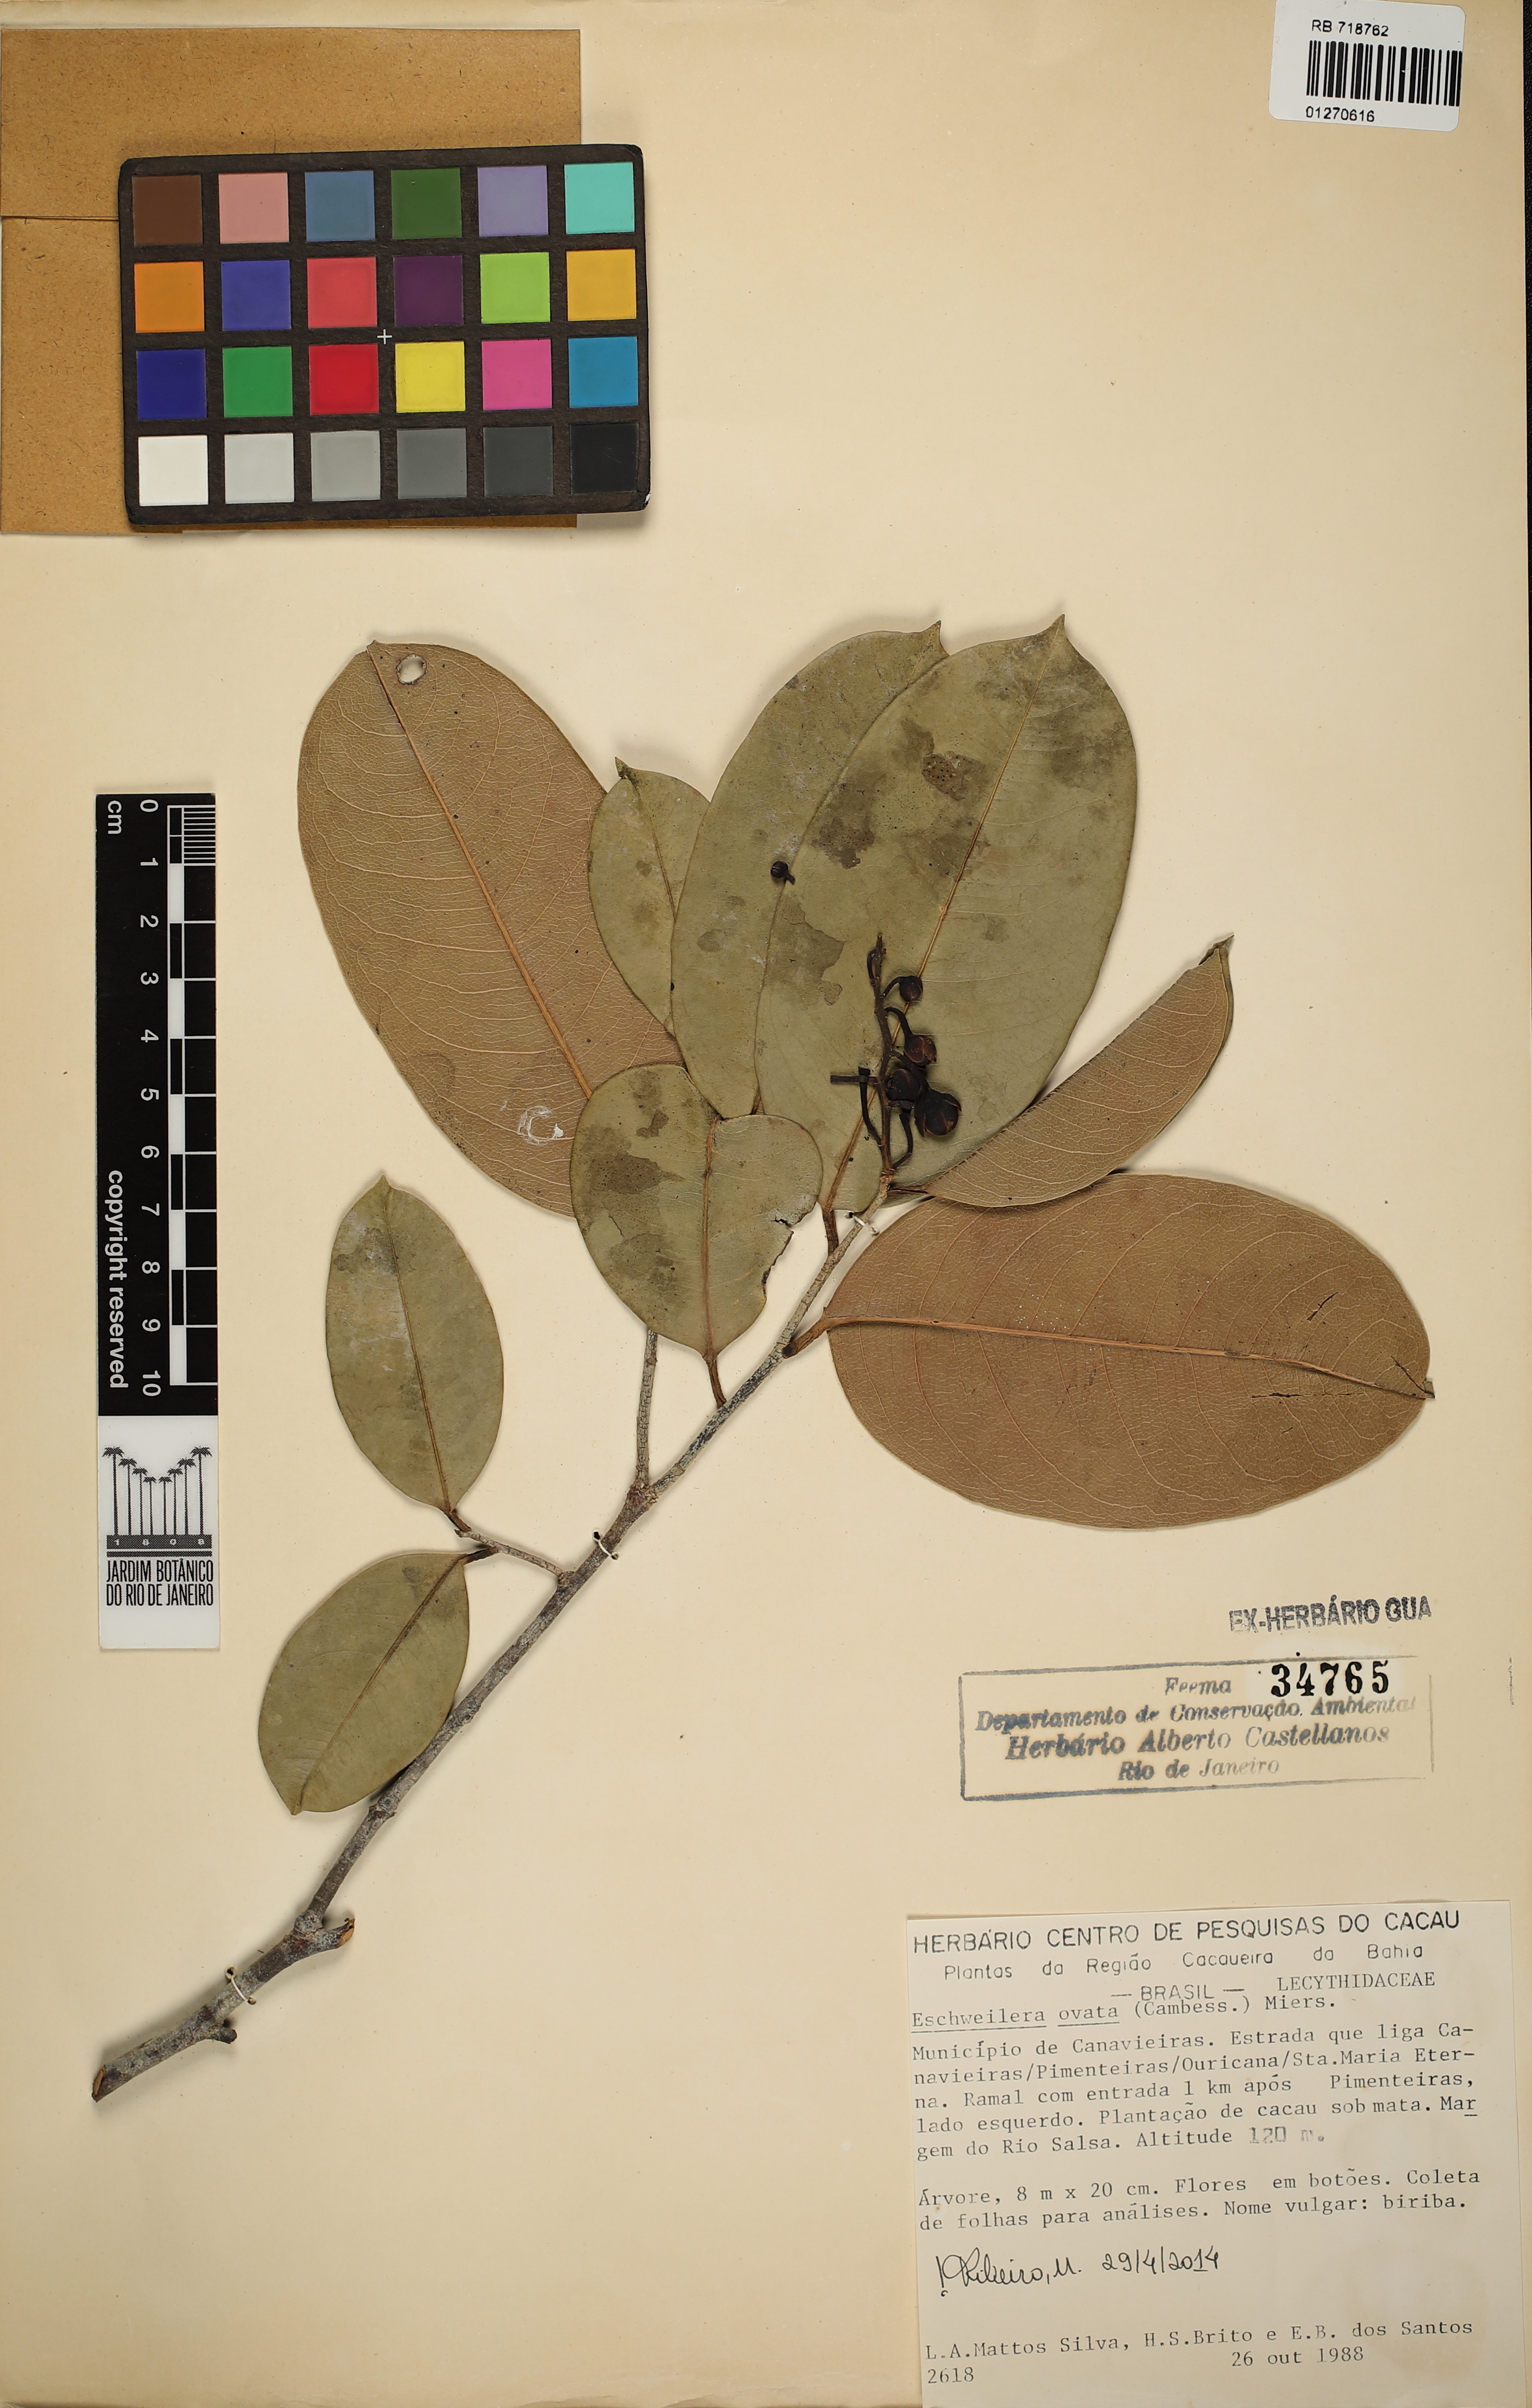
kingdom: Plantae
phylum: Tracheophyta
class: Magnoliopsida
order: Ericales
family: Lecythidaceae
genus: Eschweilera
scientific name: Eschweilera ovata
